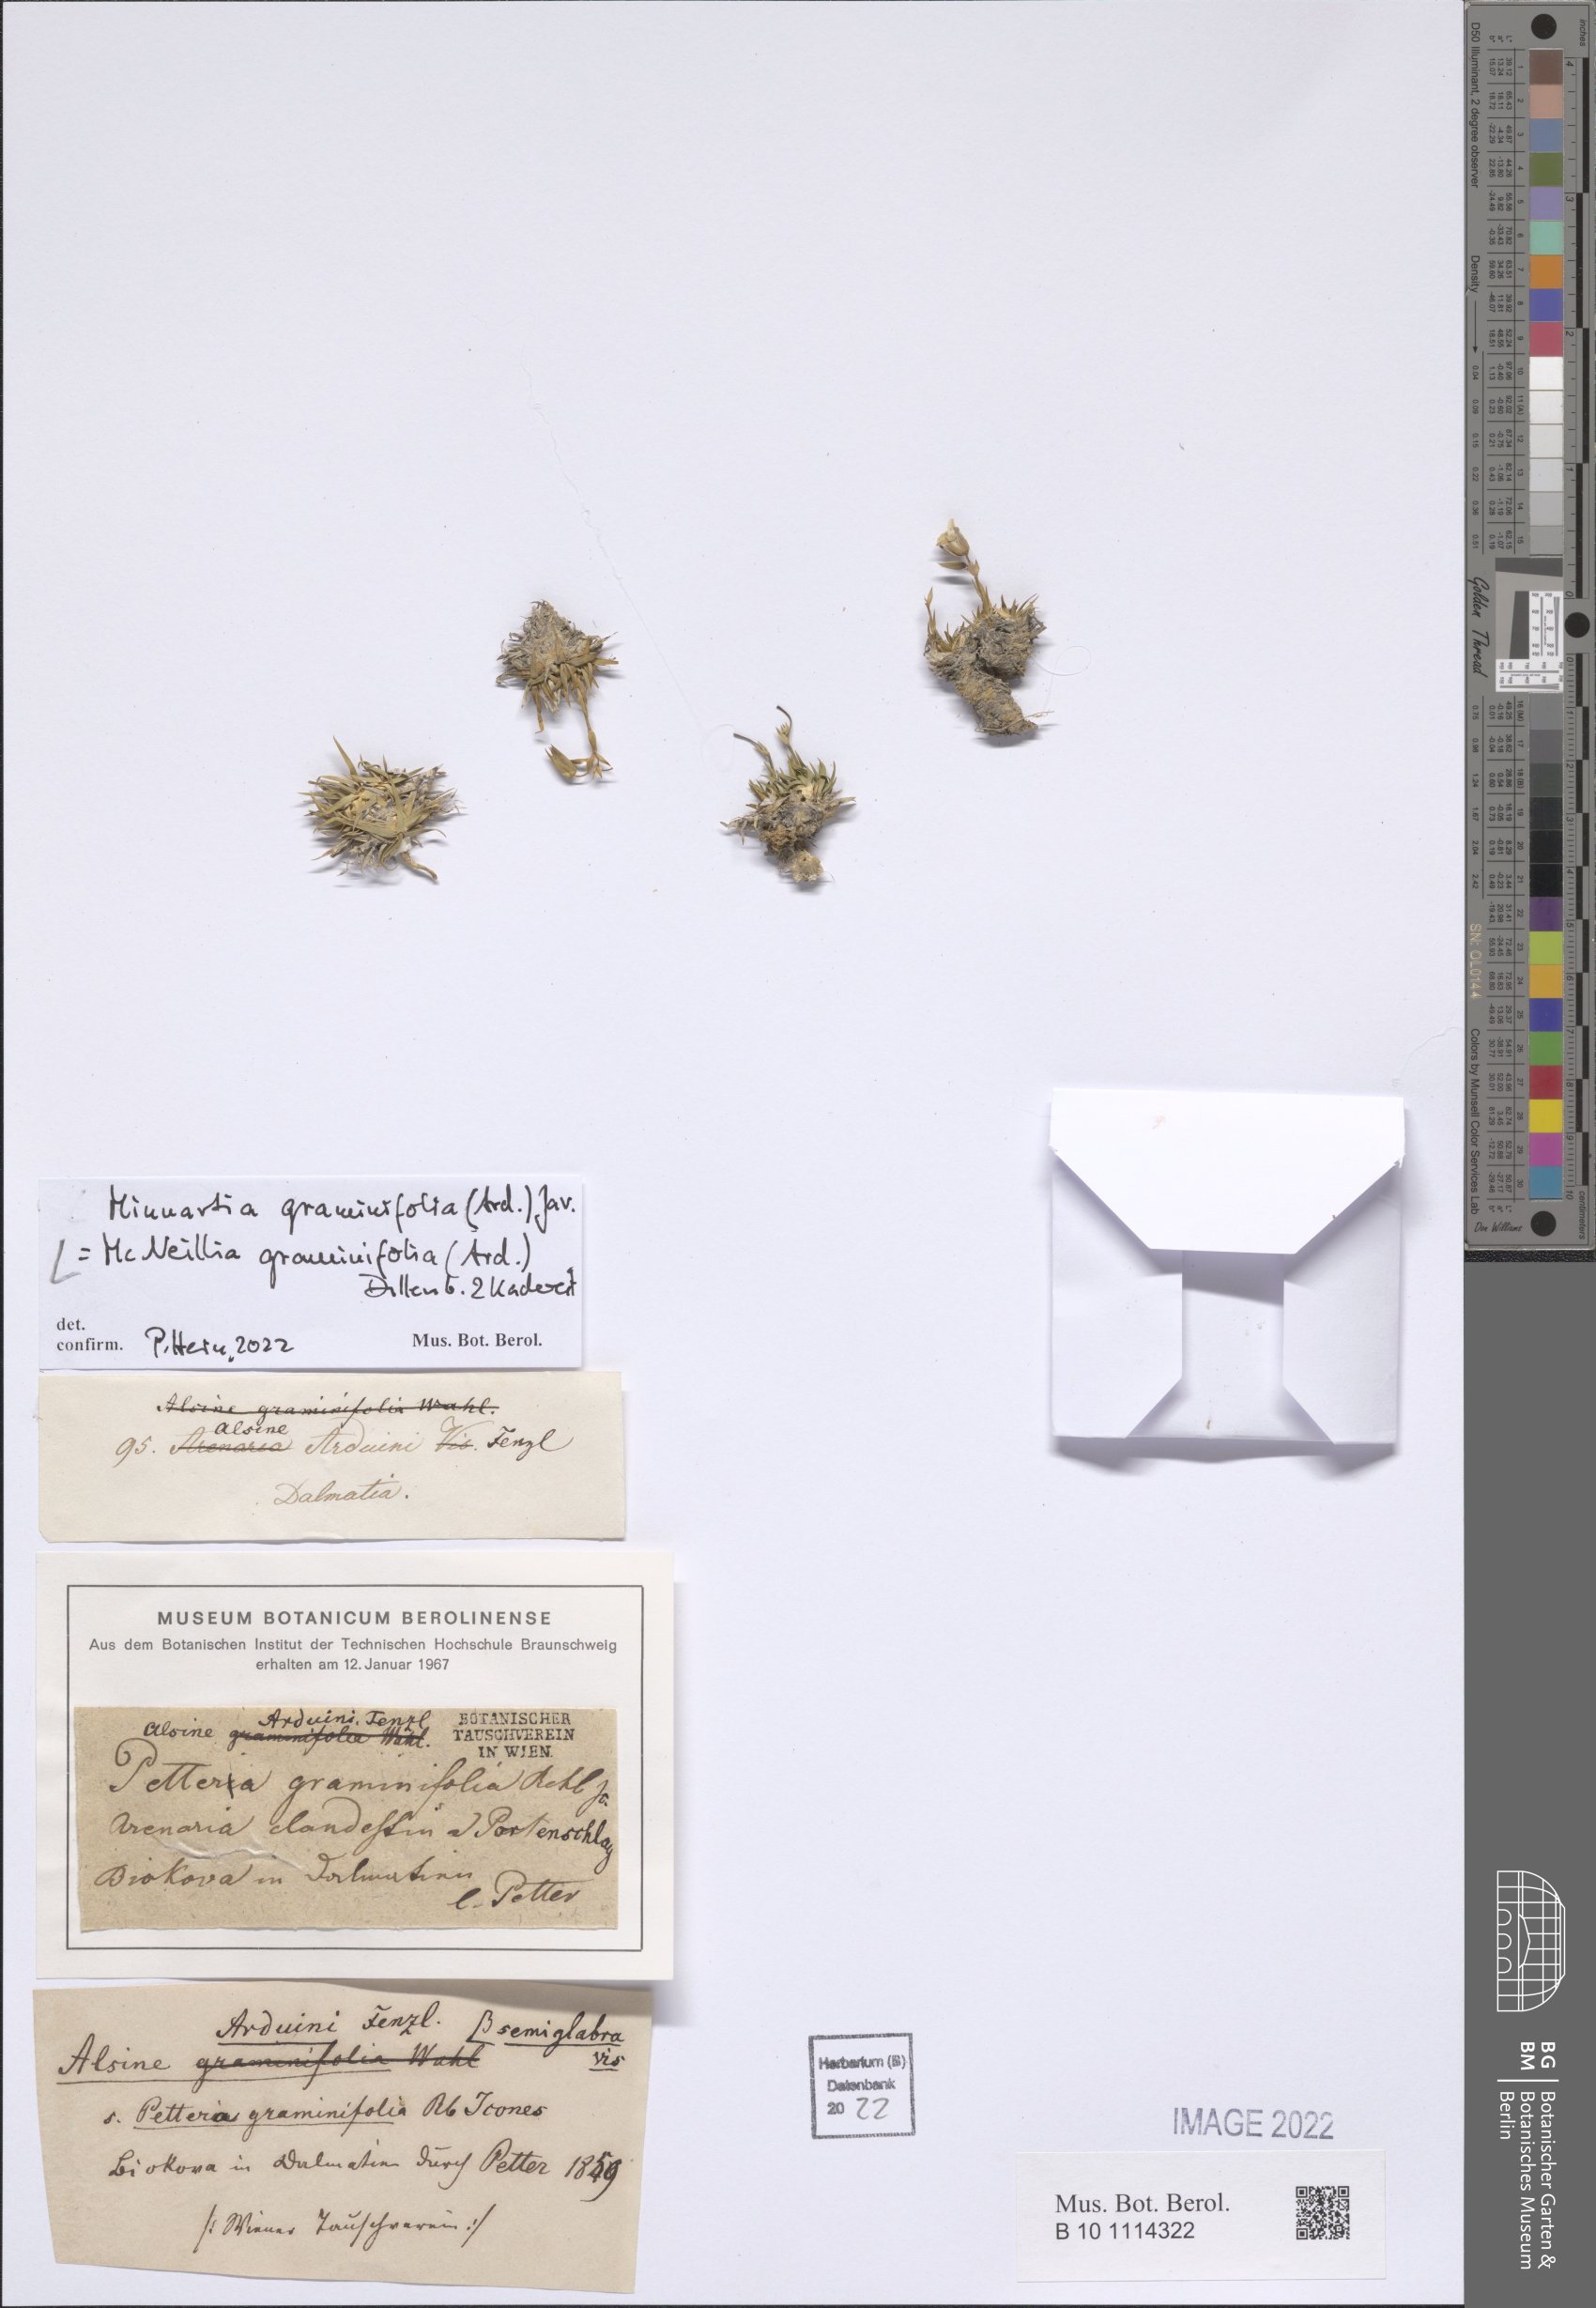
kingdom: Plantae
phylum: Tracheophyta
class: Magnoliopsida
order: Caryophyllales
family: Caryophyllaceae
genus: Mcneillia
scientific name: Mcneillia graminifolia
